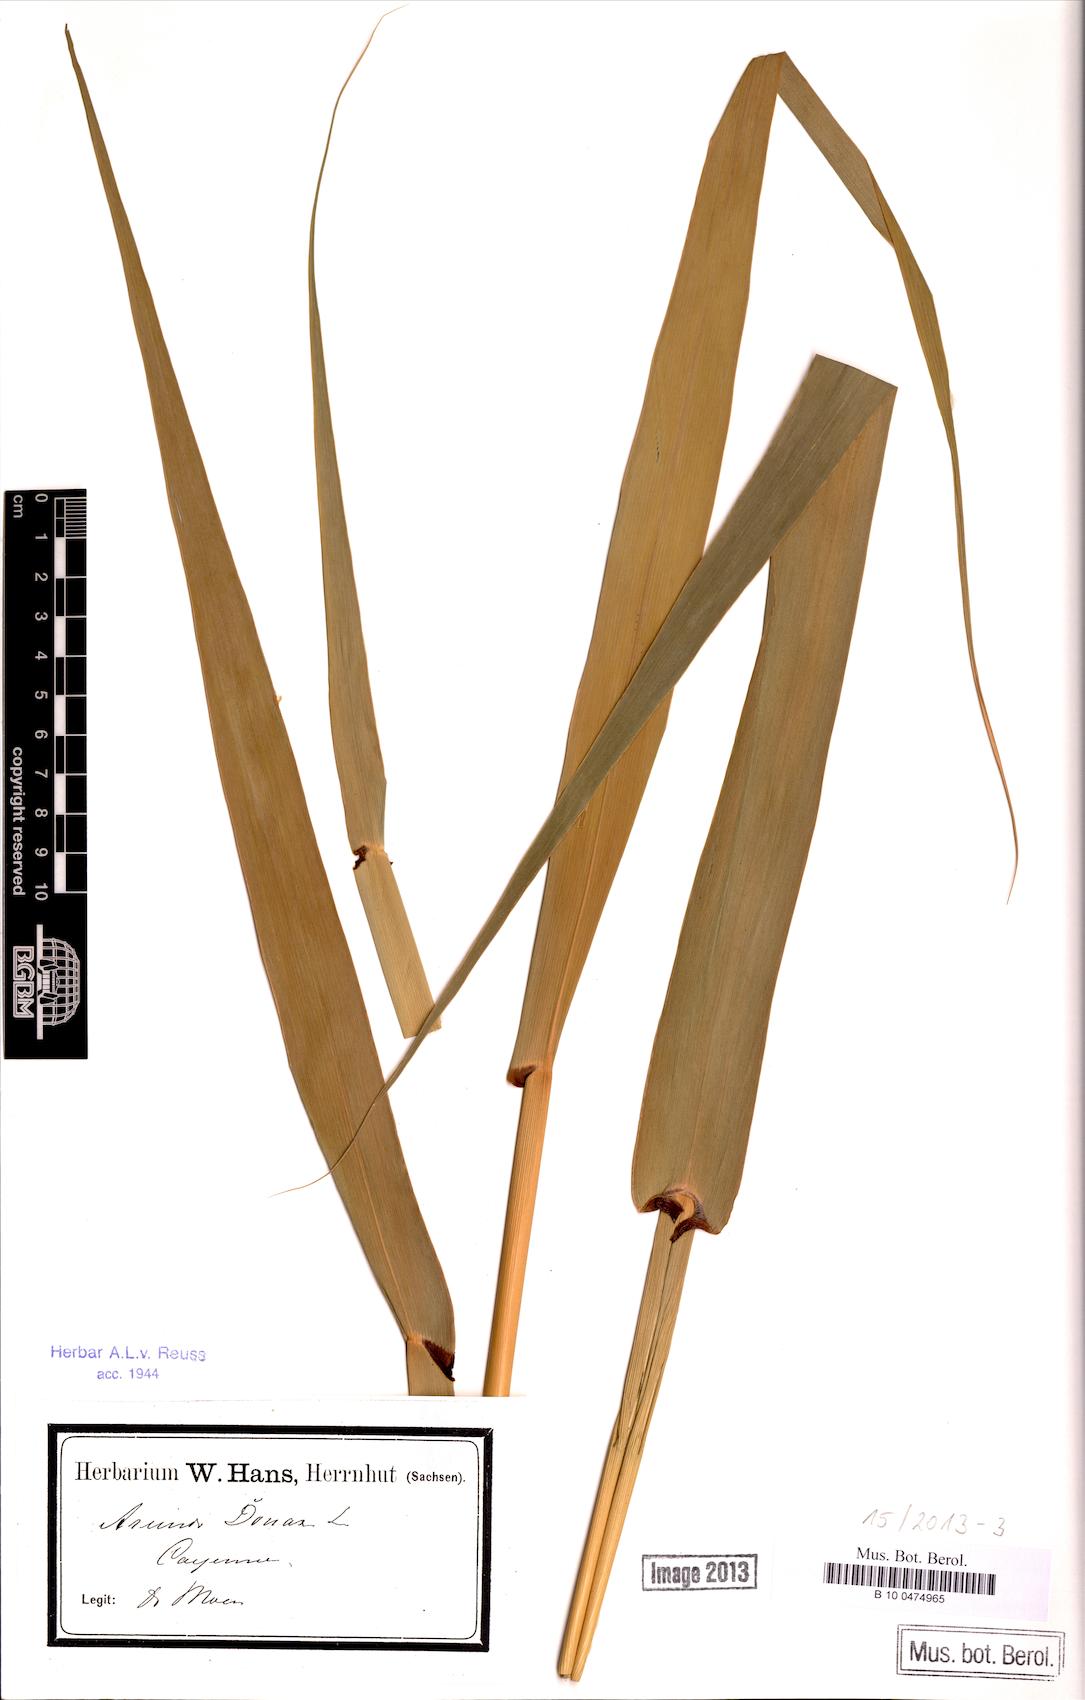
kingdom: Plantae
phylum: Tracheophyta
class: Liliopsida
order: Poales
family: Poaceae
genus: Arundo
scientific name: Arundo donax
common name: Giant reed
